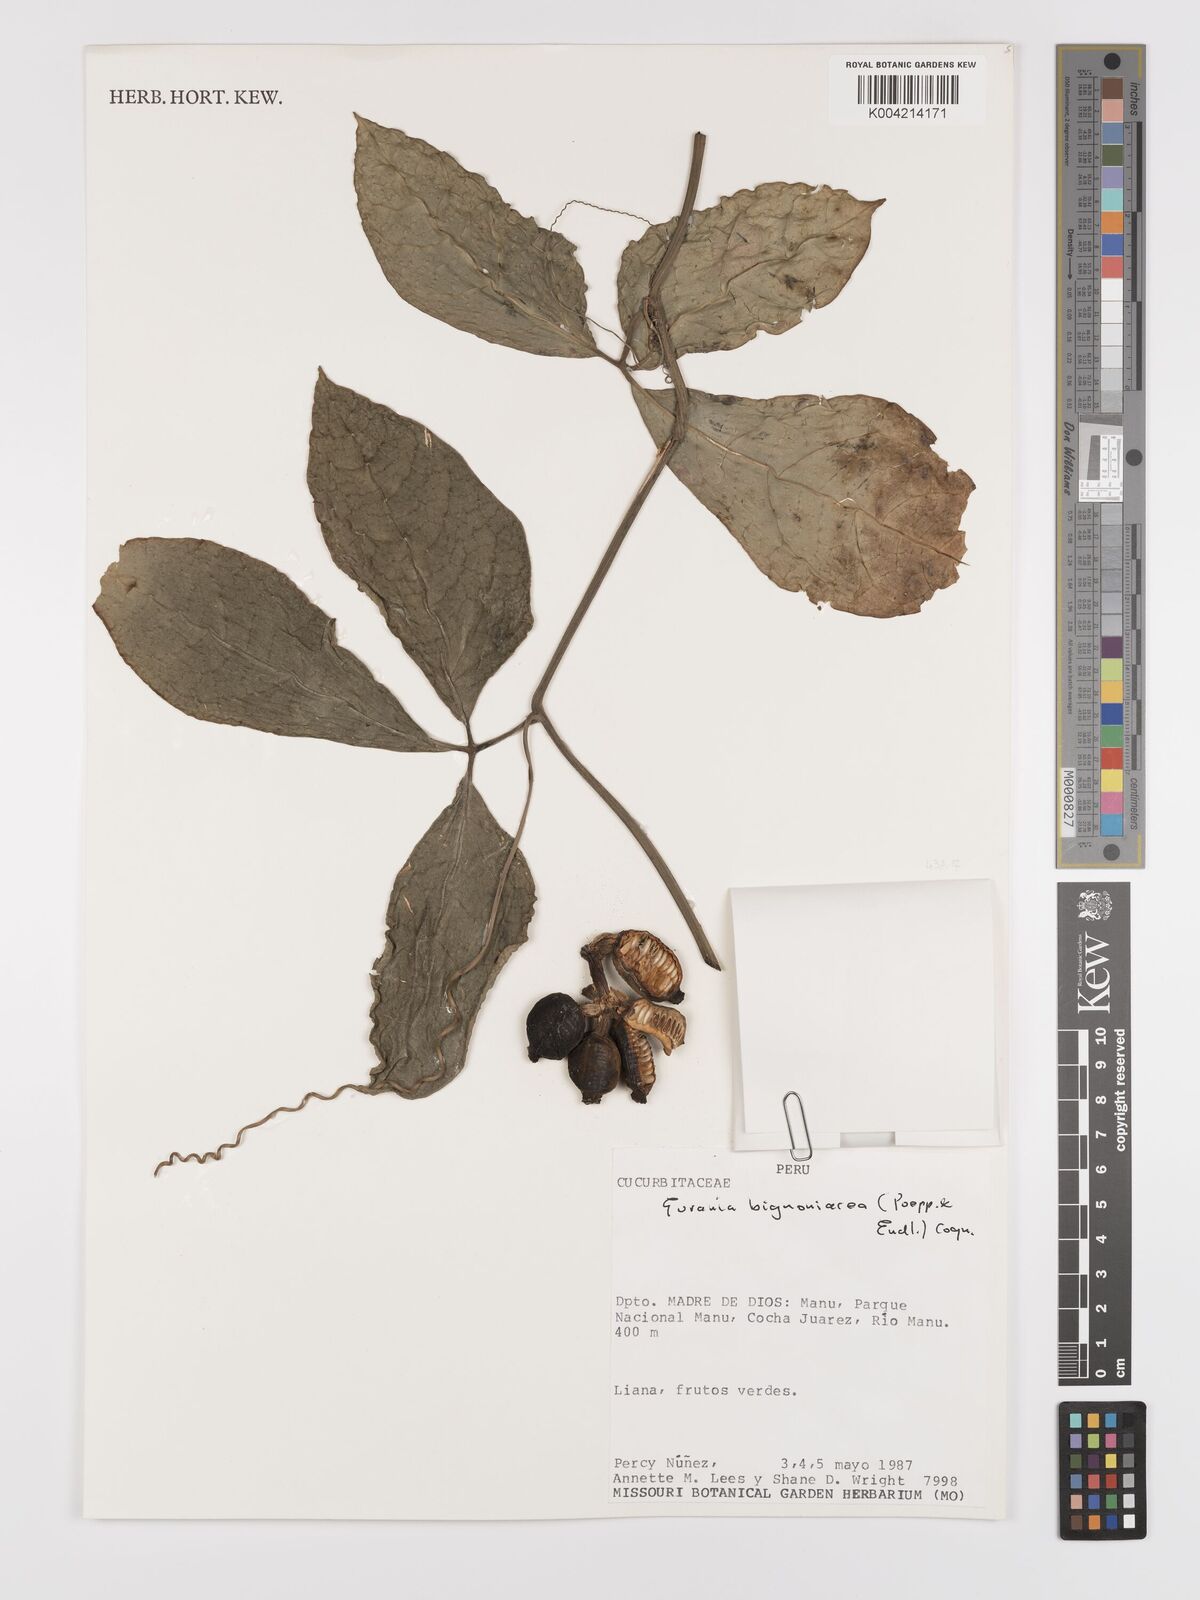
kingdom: Plantae
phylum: Tracheophyta
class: Magnoliopsida
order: Cucurbitales
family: Cucurbitaceae
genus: Gurania
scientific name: Gurania bignoniacea
